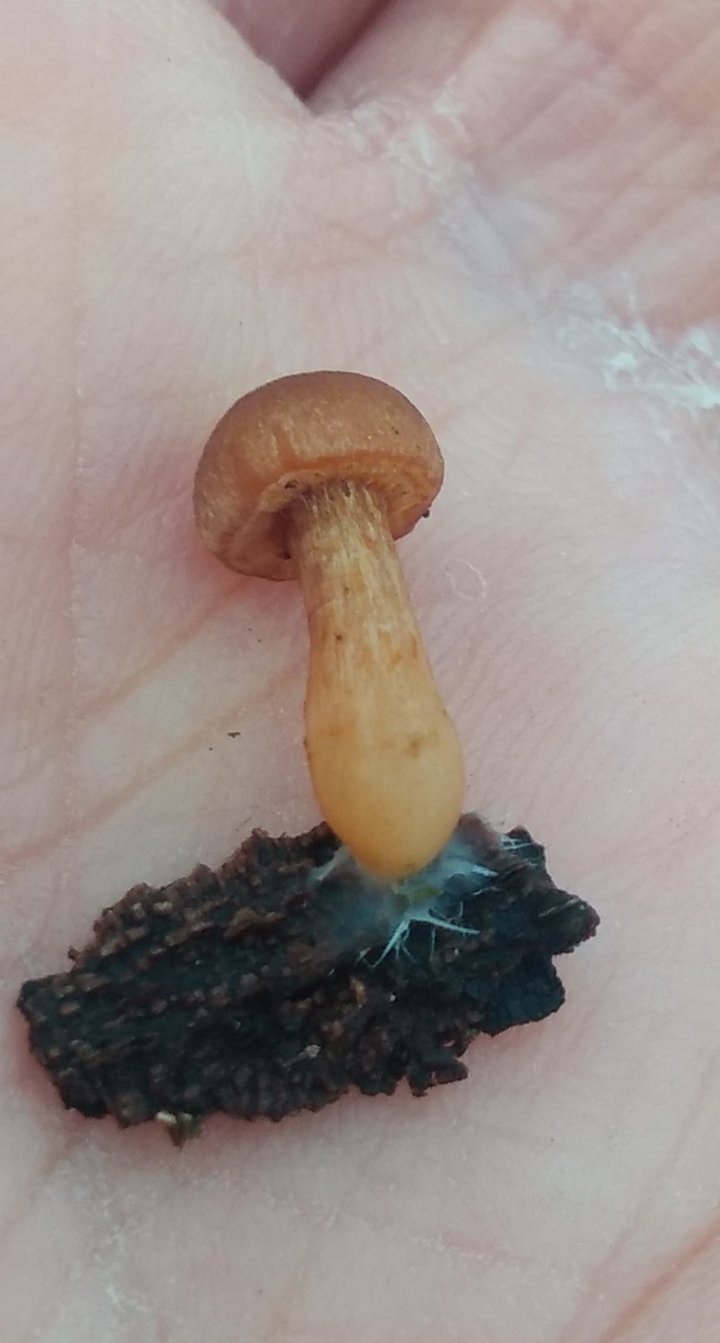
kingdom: Fungi
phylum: Basidiomycota
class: Agaricomycetes
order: Agaricales
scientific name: Agaricales
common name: champignonordenen
